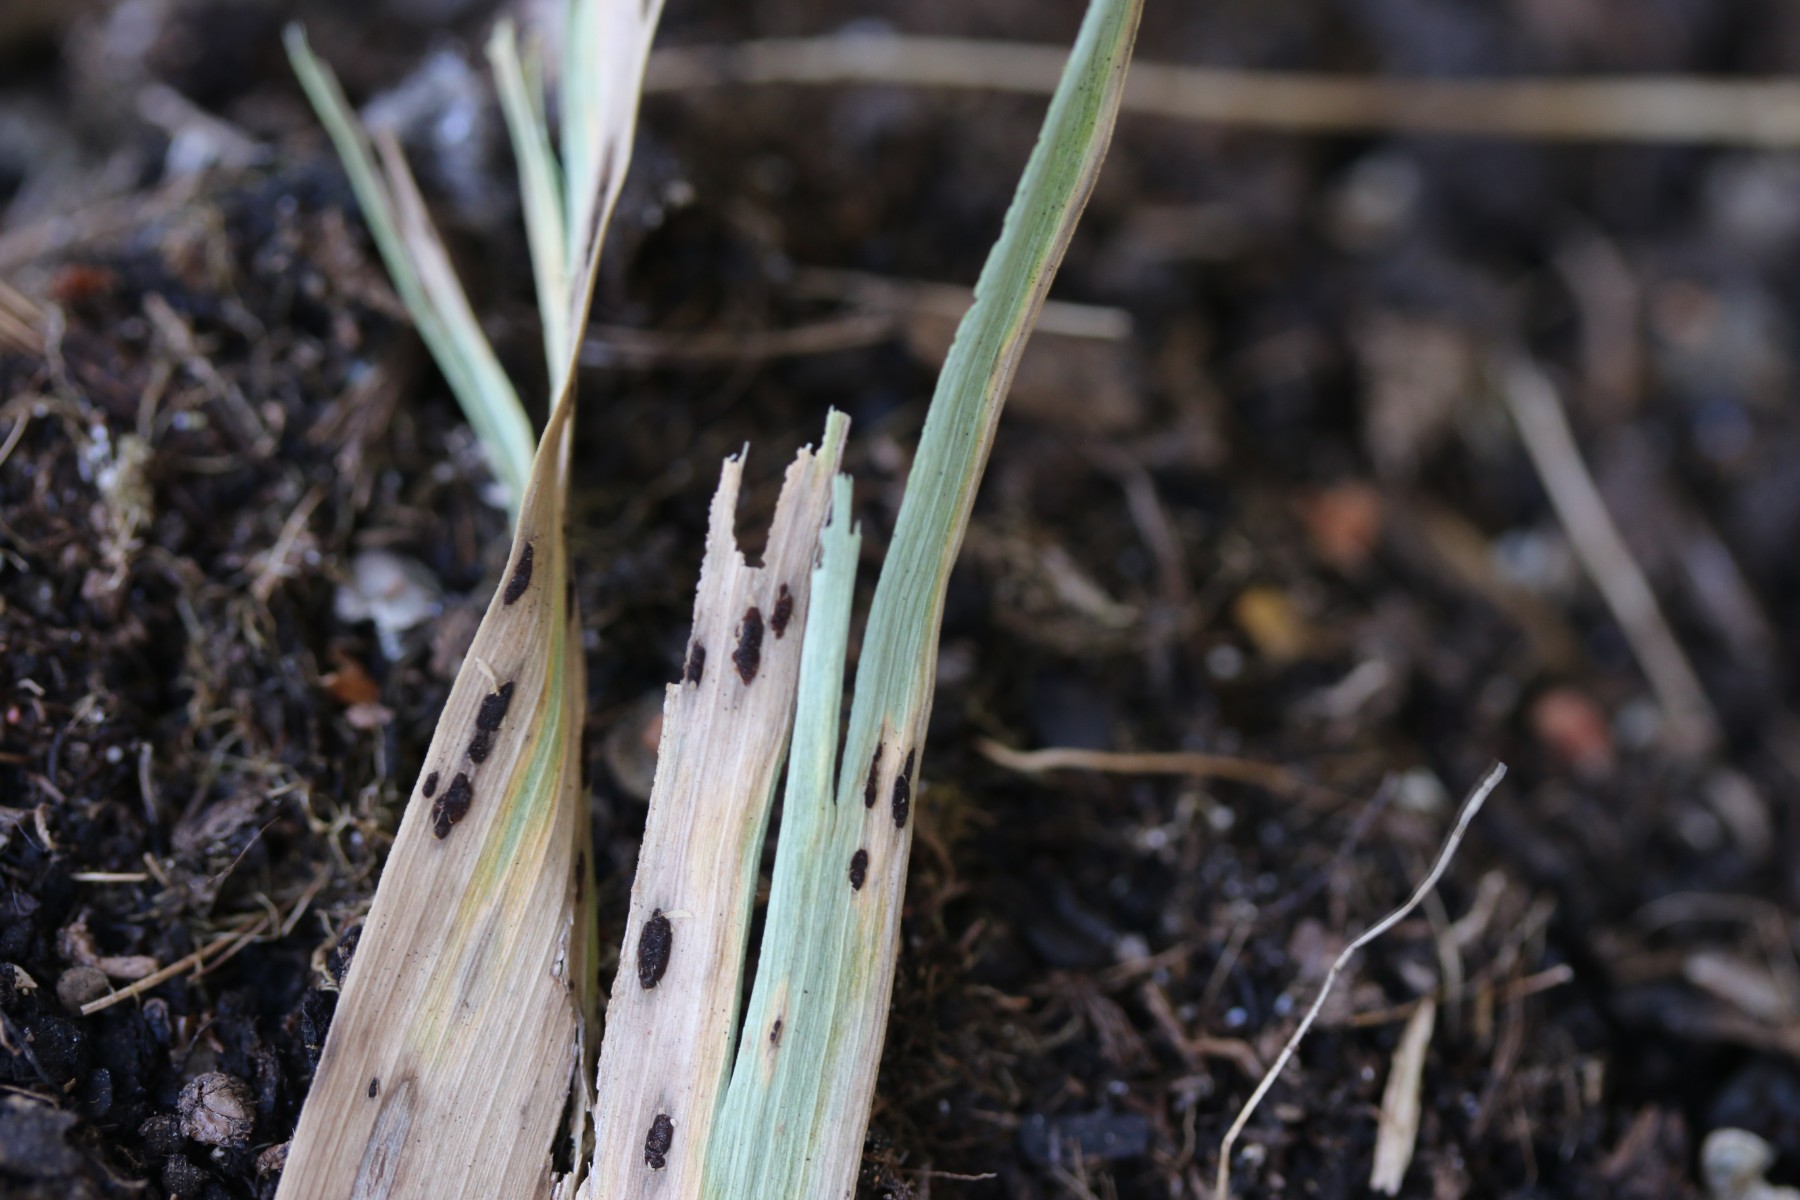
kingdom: Fungi
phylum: Basidiomycota
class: Pucciniomycetes
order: Pucciniales
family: Pucciniaceae
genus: Puccinia
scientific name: Puccinia phragmitis
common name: tagrør-tvecellerust
